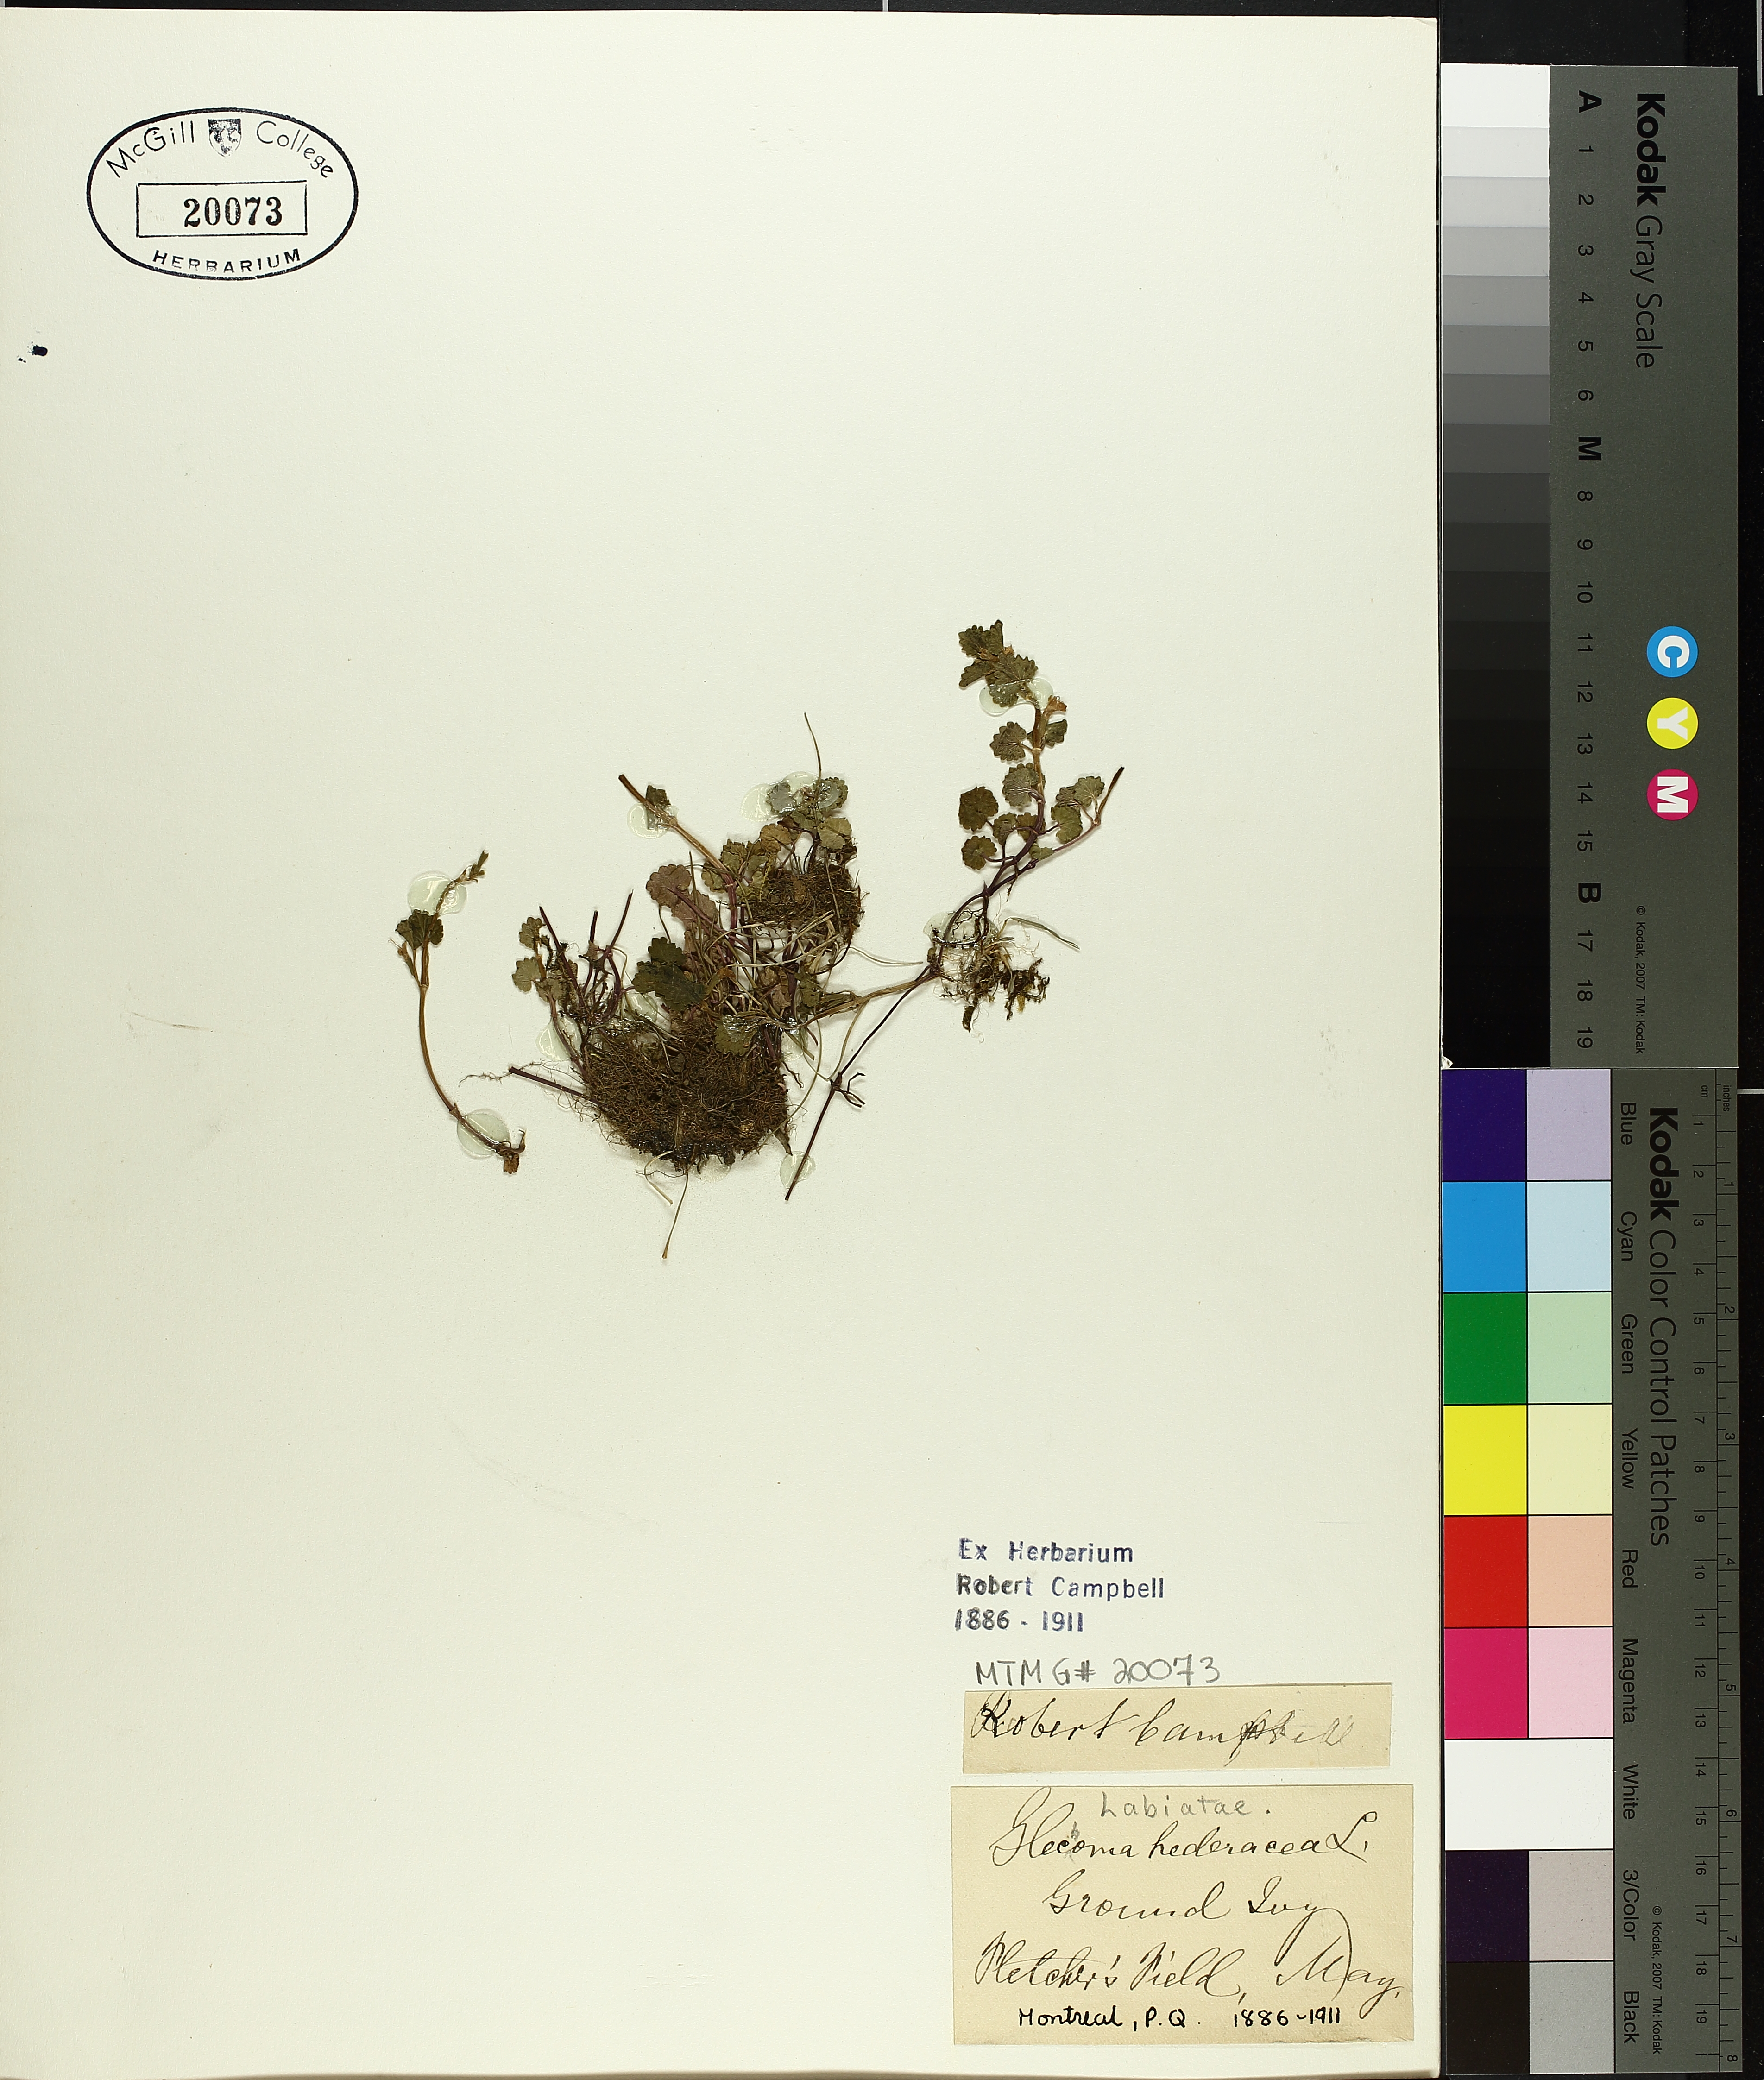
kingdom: Plantae
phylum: Tracheophyta
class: Magnoliopsida
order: Lamiales
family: Lamiaceae
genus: Glechoma
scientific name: Glechoma hederacea
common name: Ground ivy
